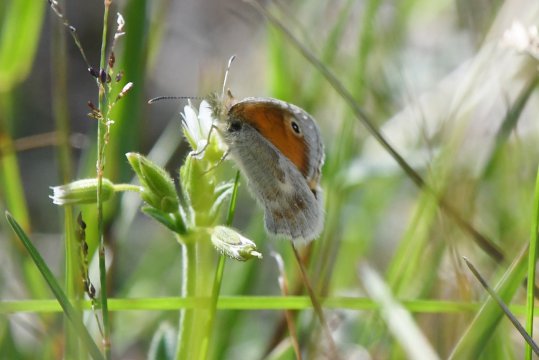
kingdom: Animalia
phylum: Arthropoda
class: Insecta
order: Lepidoptera
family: Nymphalidae
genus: Coenonympha
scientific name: Coenonympha pamphilus
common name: Small Heath
